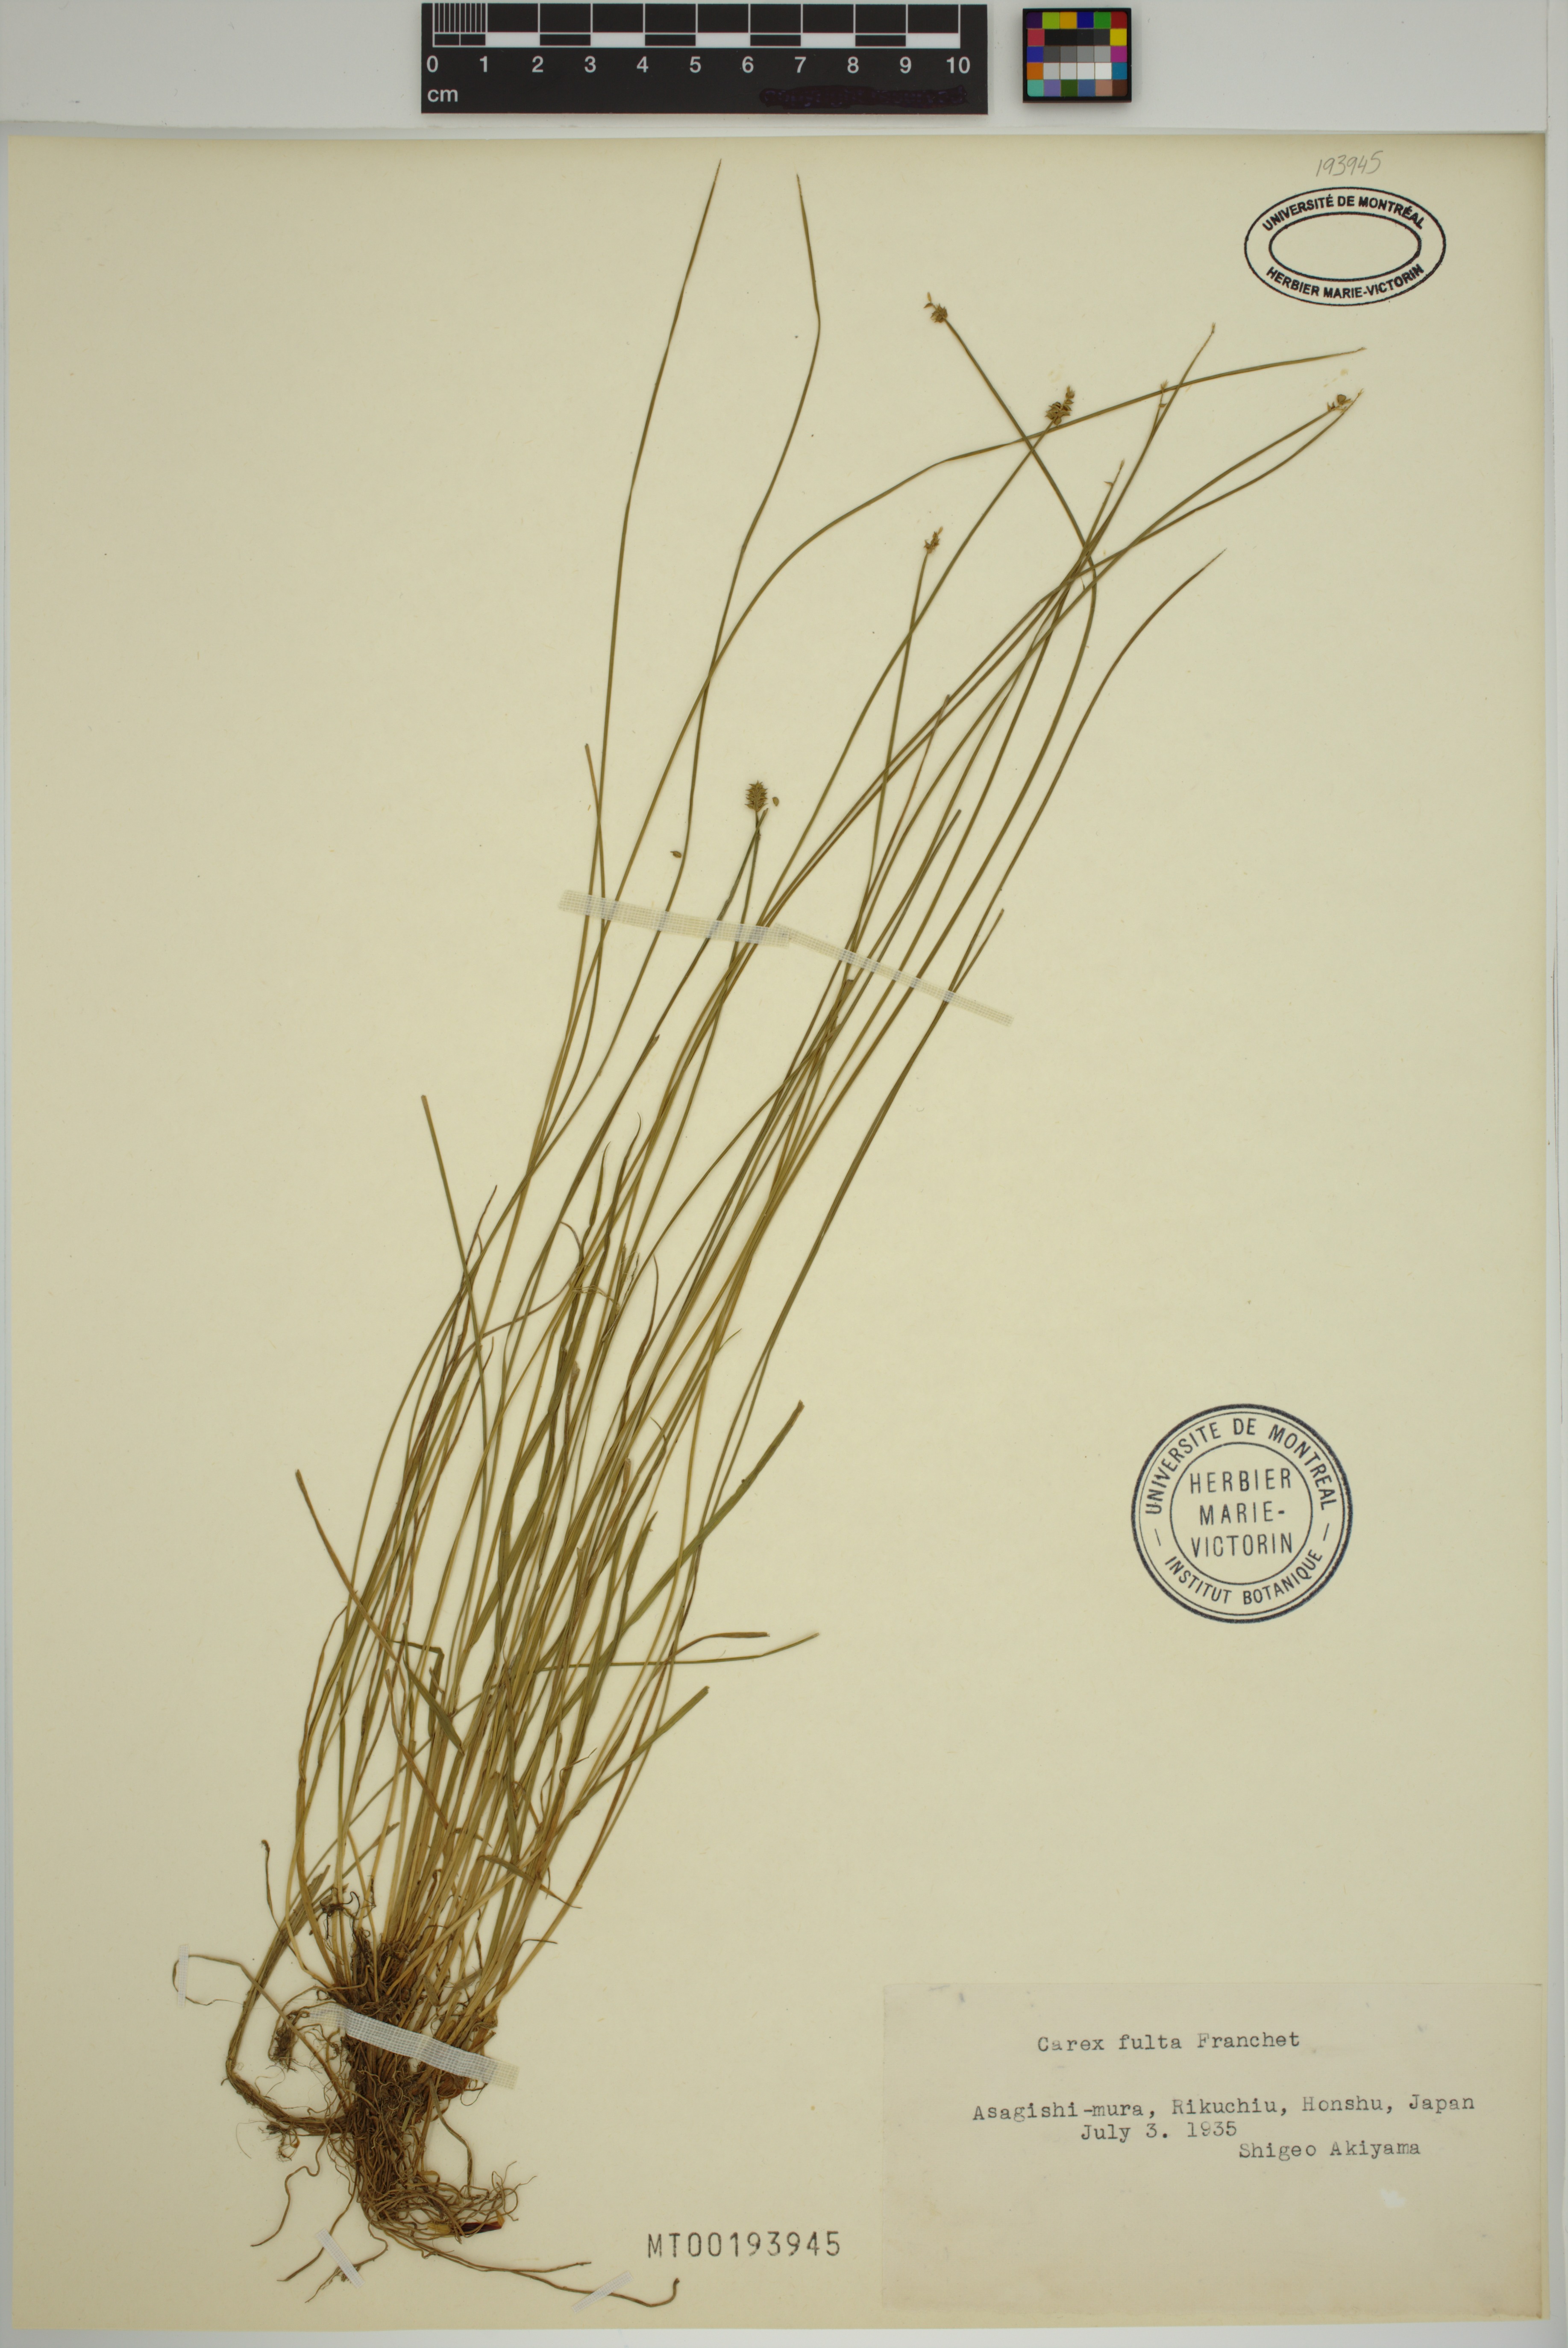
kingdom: Plantae
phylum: Tracheophyta
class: Liliopsida
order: Poales
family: Cyperaceae
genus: Carex
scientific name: Carex fulta
